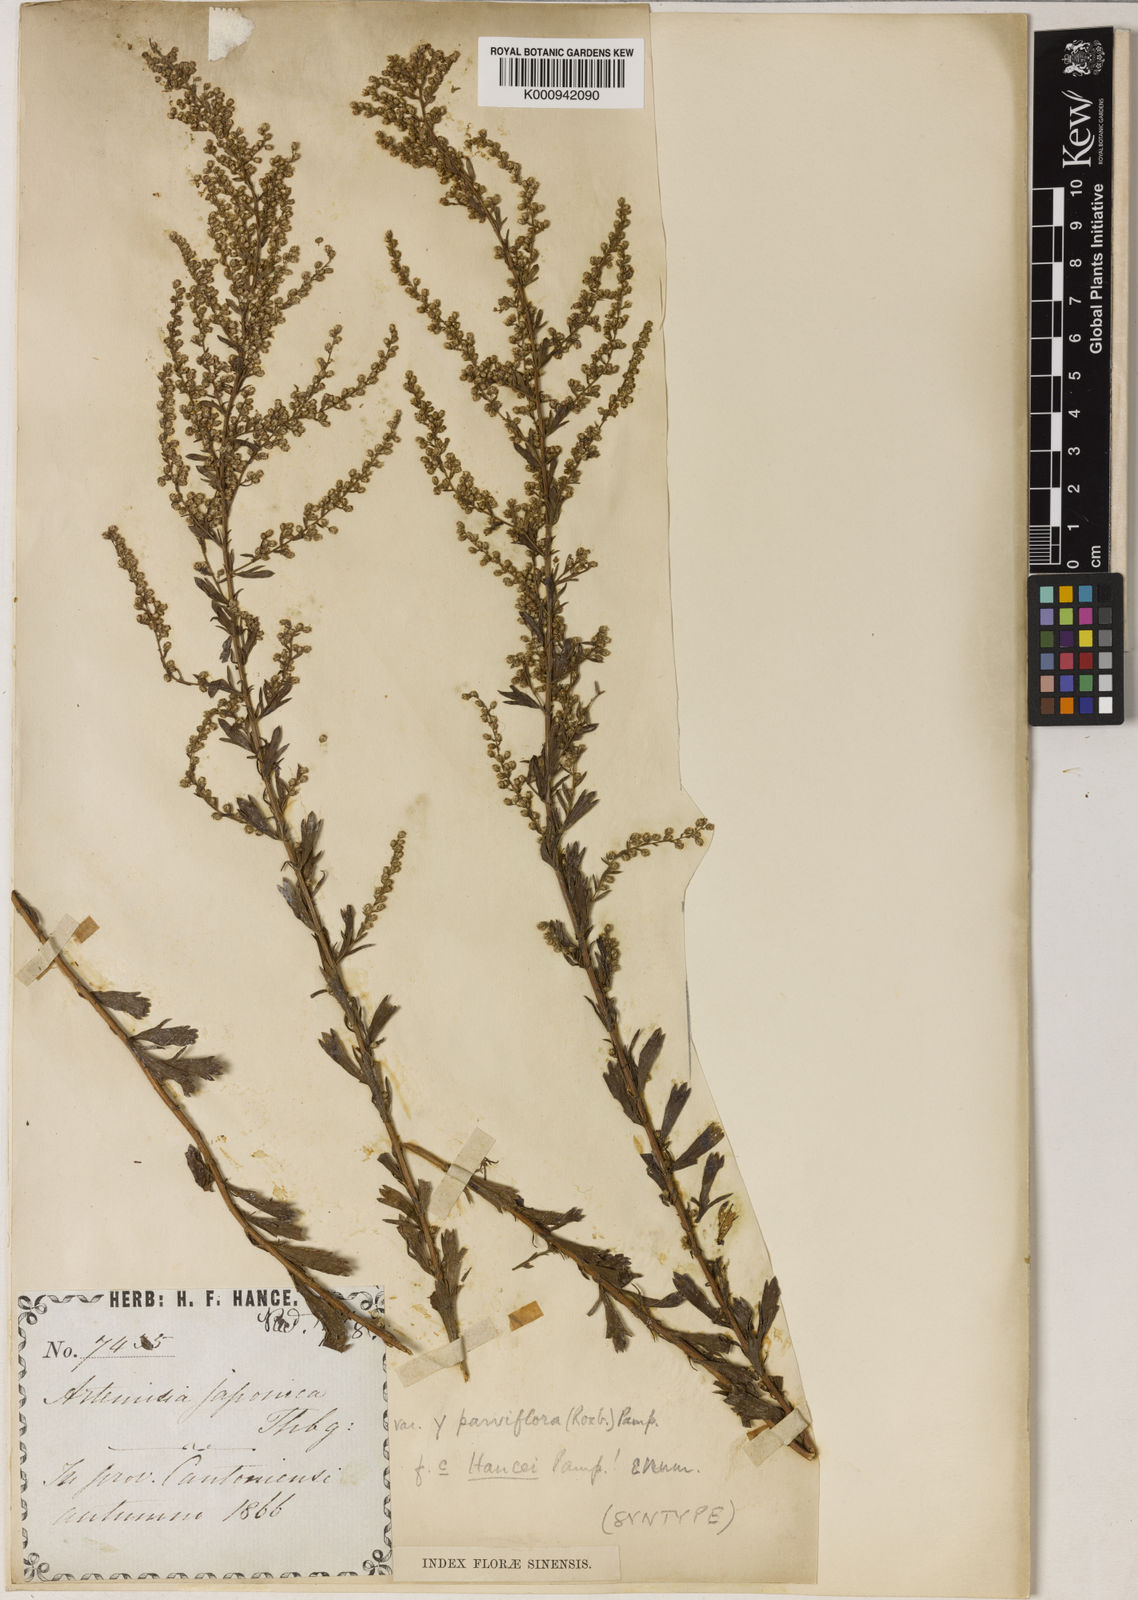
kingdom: Plantae
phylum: Tracheophyta
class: Magnoliopsida
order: Asterales
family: Asteraceae
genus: Artemisia
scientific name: Artemisia
